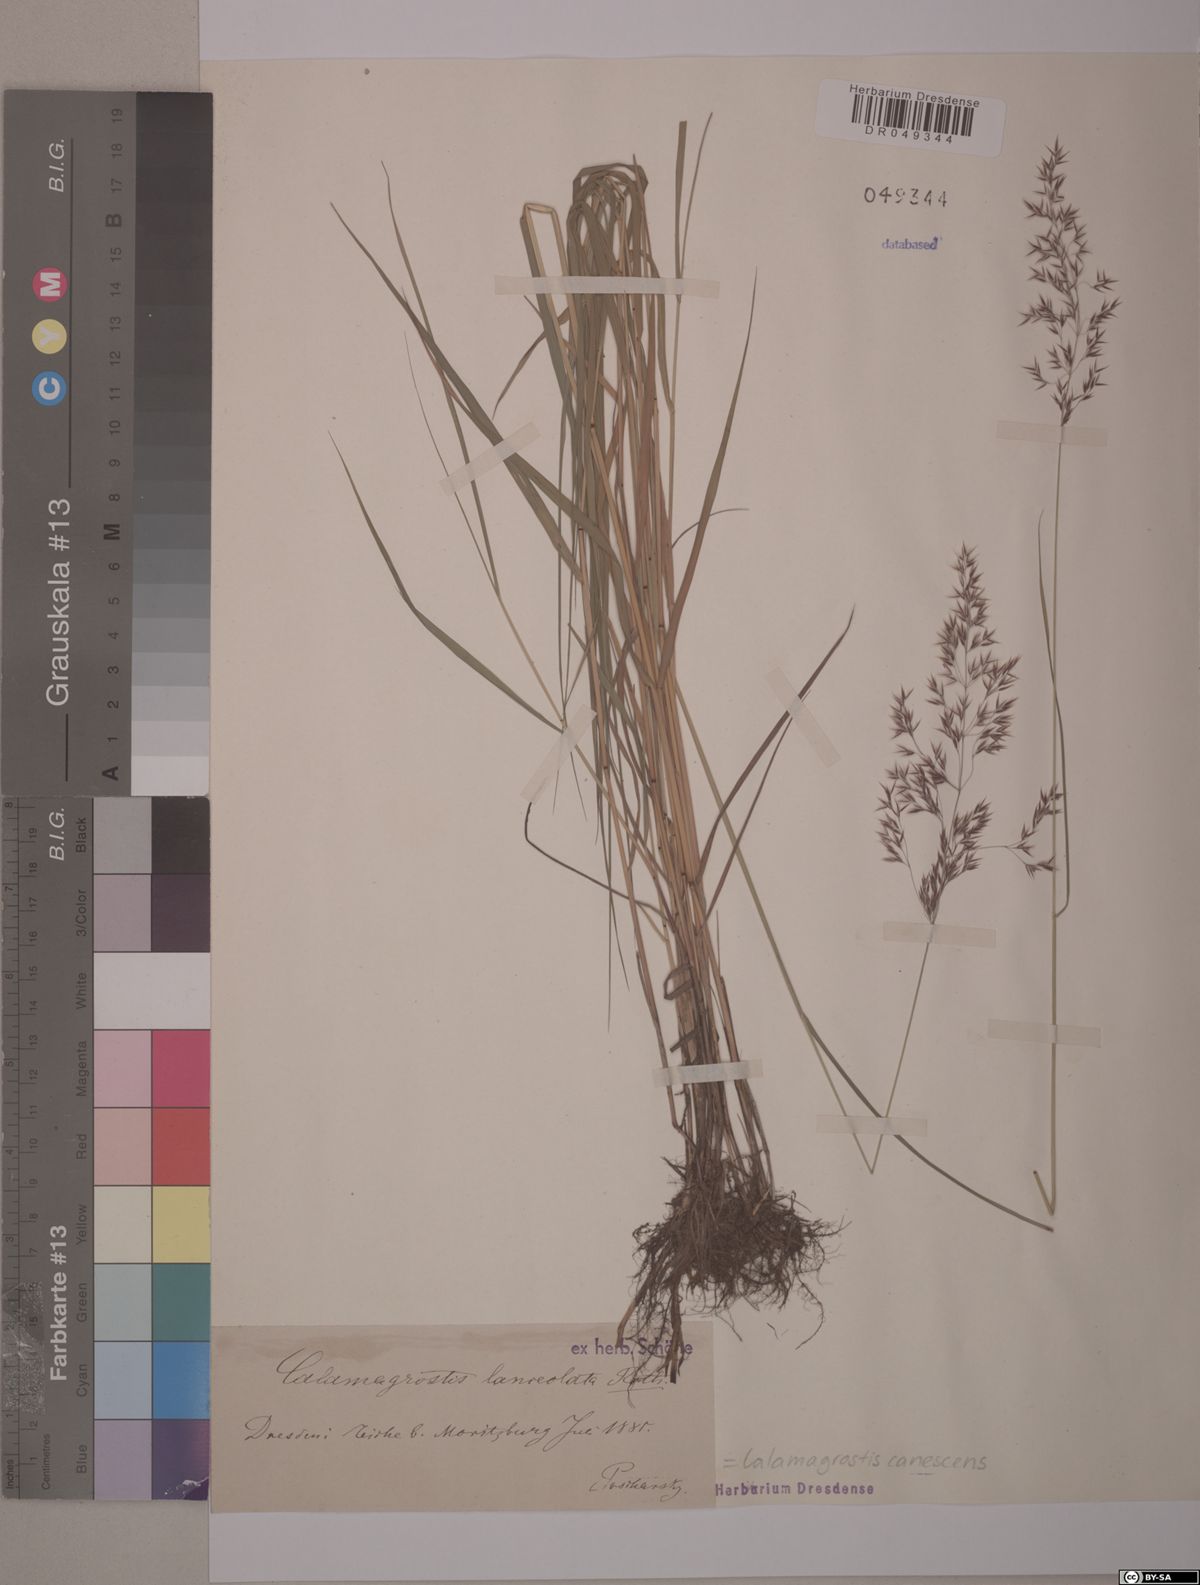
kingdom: Plantae
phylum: Tracheophyta
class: Liliopsida
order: Poales
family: Poaceae
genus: Calamagrostis
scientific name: Calamagrostis canescens
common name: Purple small-reed
